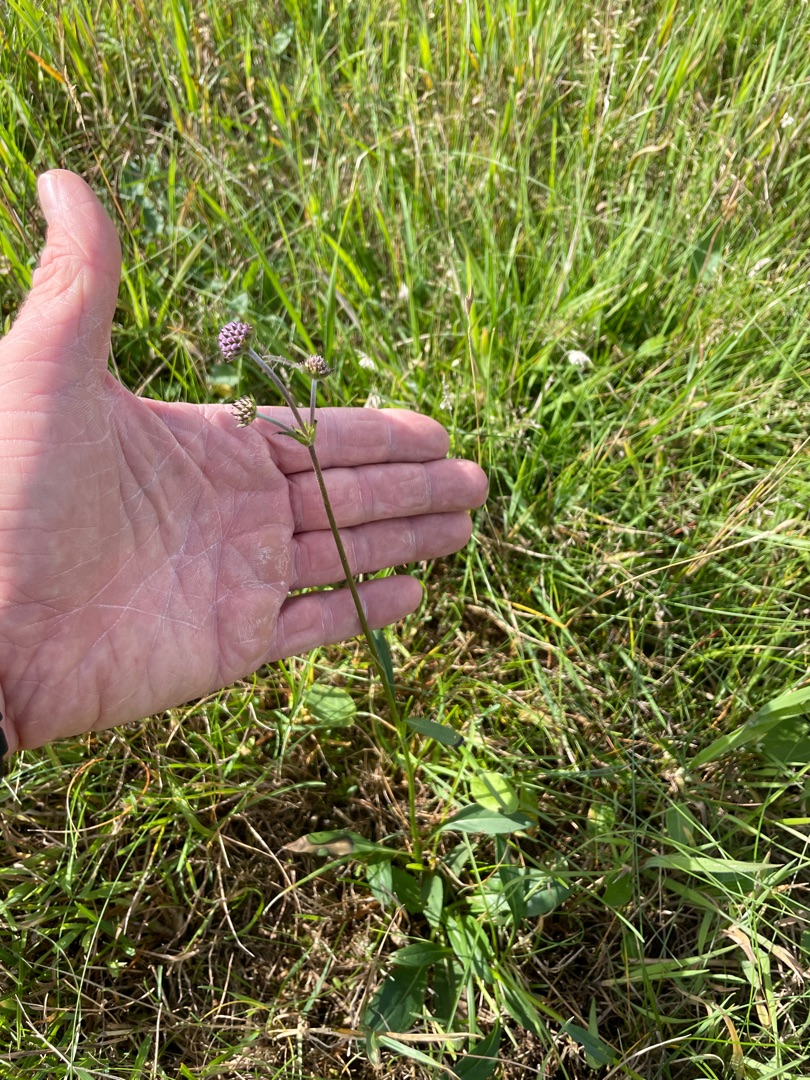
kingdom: Plantae
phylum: Tracheophyta
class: Magnoliopsida
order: Dipsacales
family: Caprifoliaceae
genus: Succisa
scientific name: Succisa pratensis
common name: Djævelsbid
